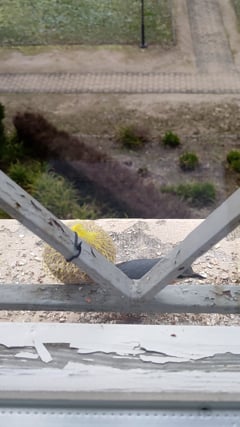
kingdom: Animalia
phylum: Chordata
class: Aves
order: Passeriformes
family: Sittidae
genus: Sitta
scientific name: Sitta europaea
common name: Eurasian nuthatch
